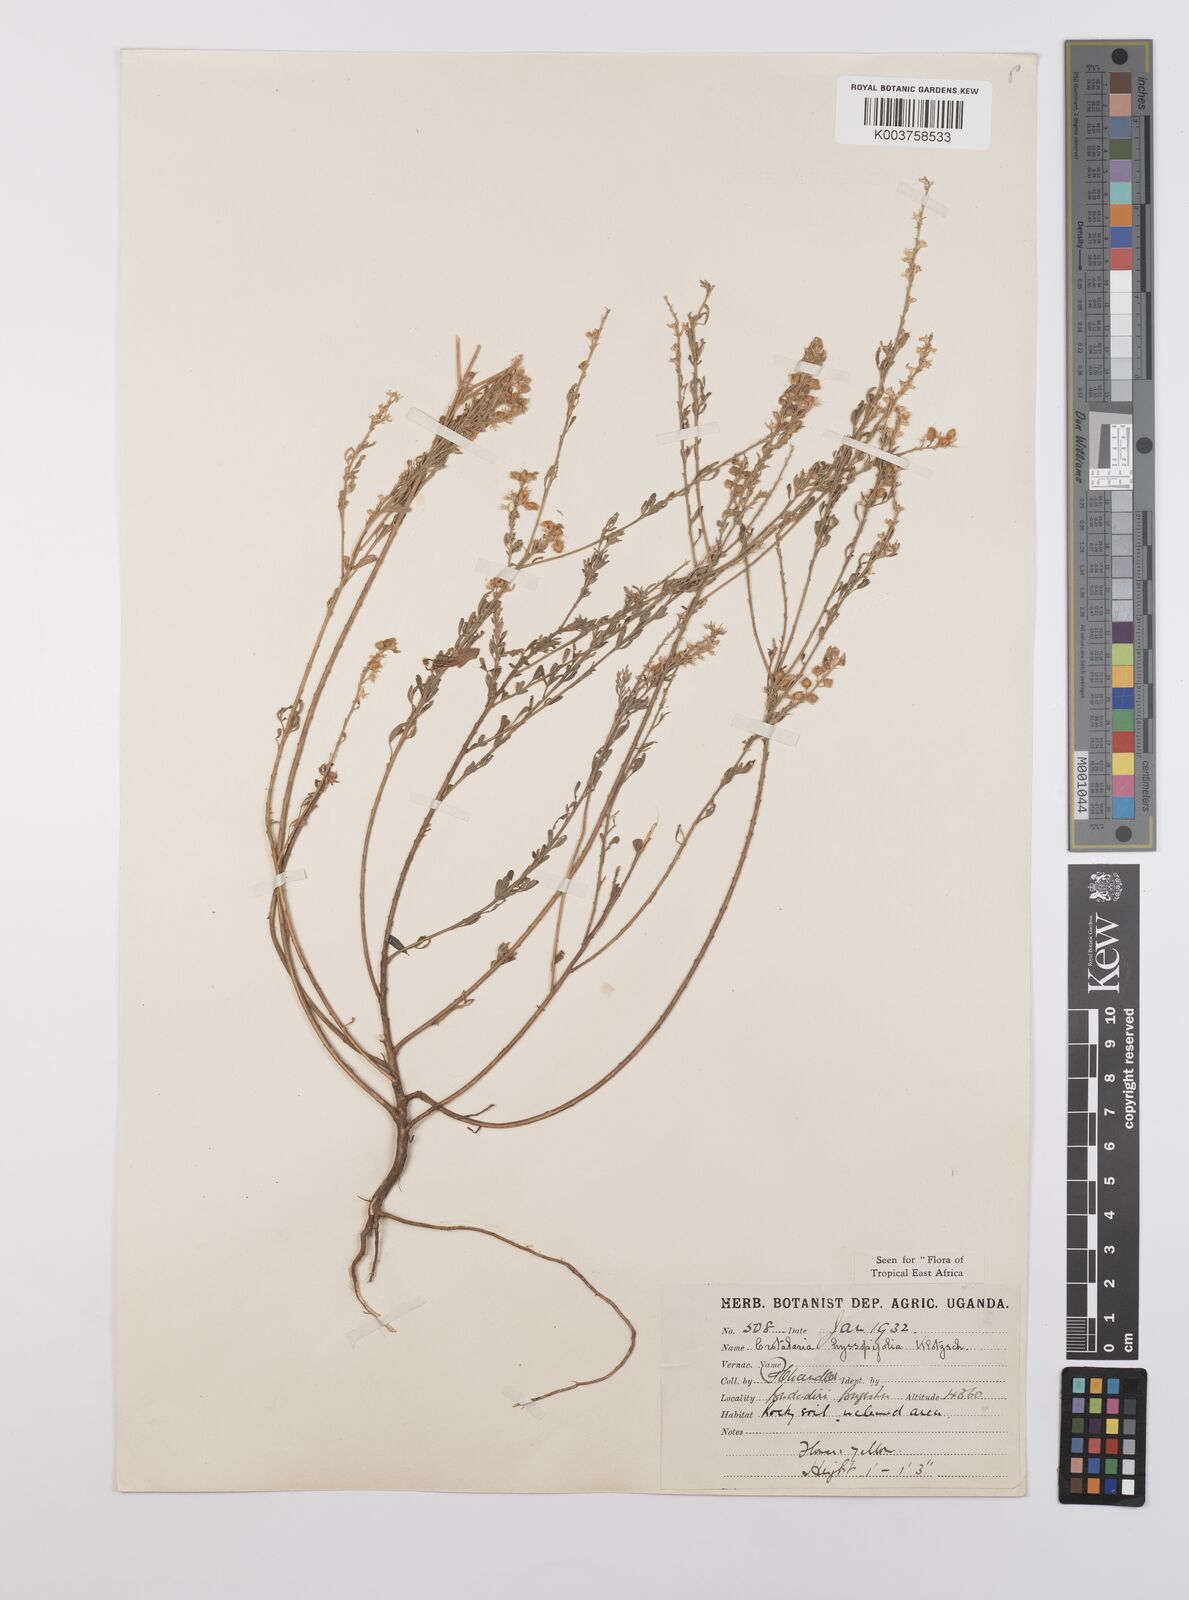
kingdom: Plantae
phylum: Tracheophyta
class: Magnoliopsida
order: Fabales
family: Fabaceae
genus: Crotalaria
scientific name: Crotalaria hyssopifolia
